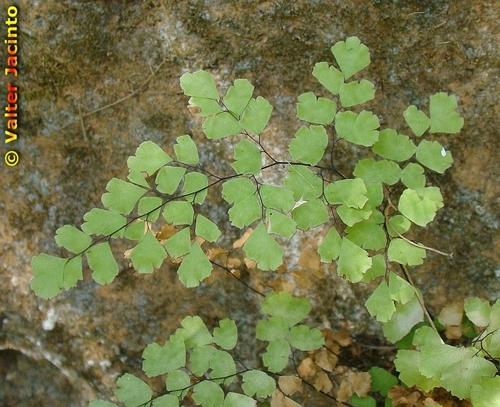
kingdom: Plantae
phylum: Tracheophyta
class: Polypodiopsida
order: Polypodiales
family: Pteridaceae
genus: Adiantum
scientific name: Adiantum capillus-veneris
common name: Maidenhair fern
